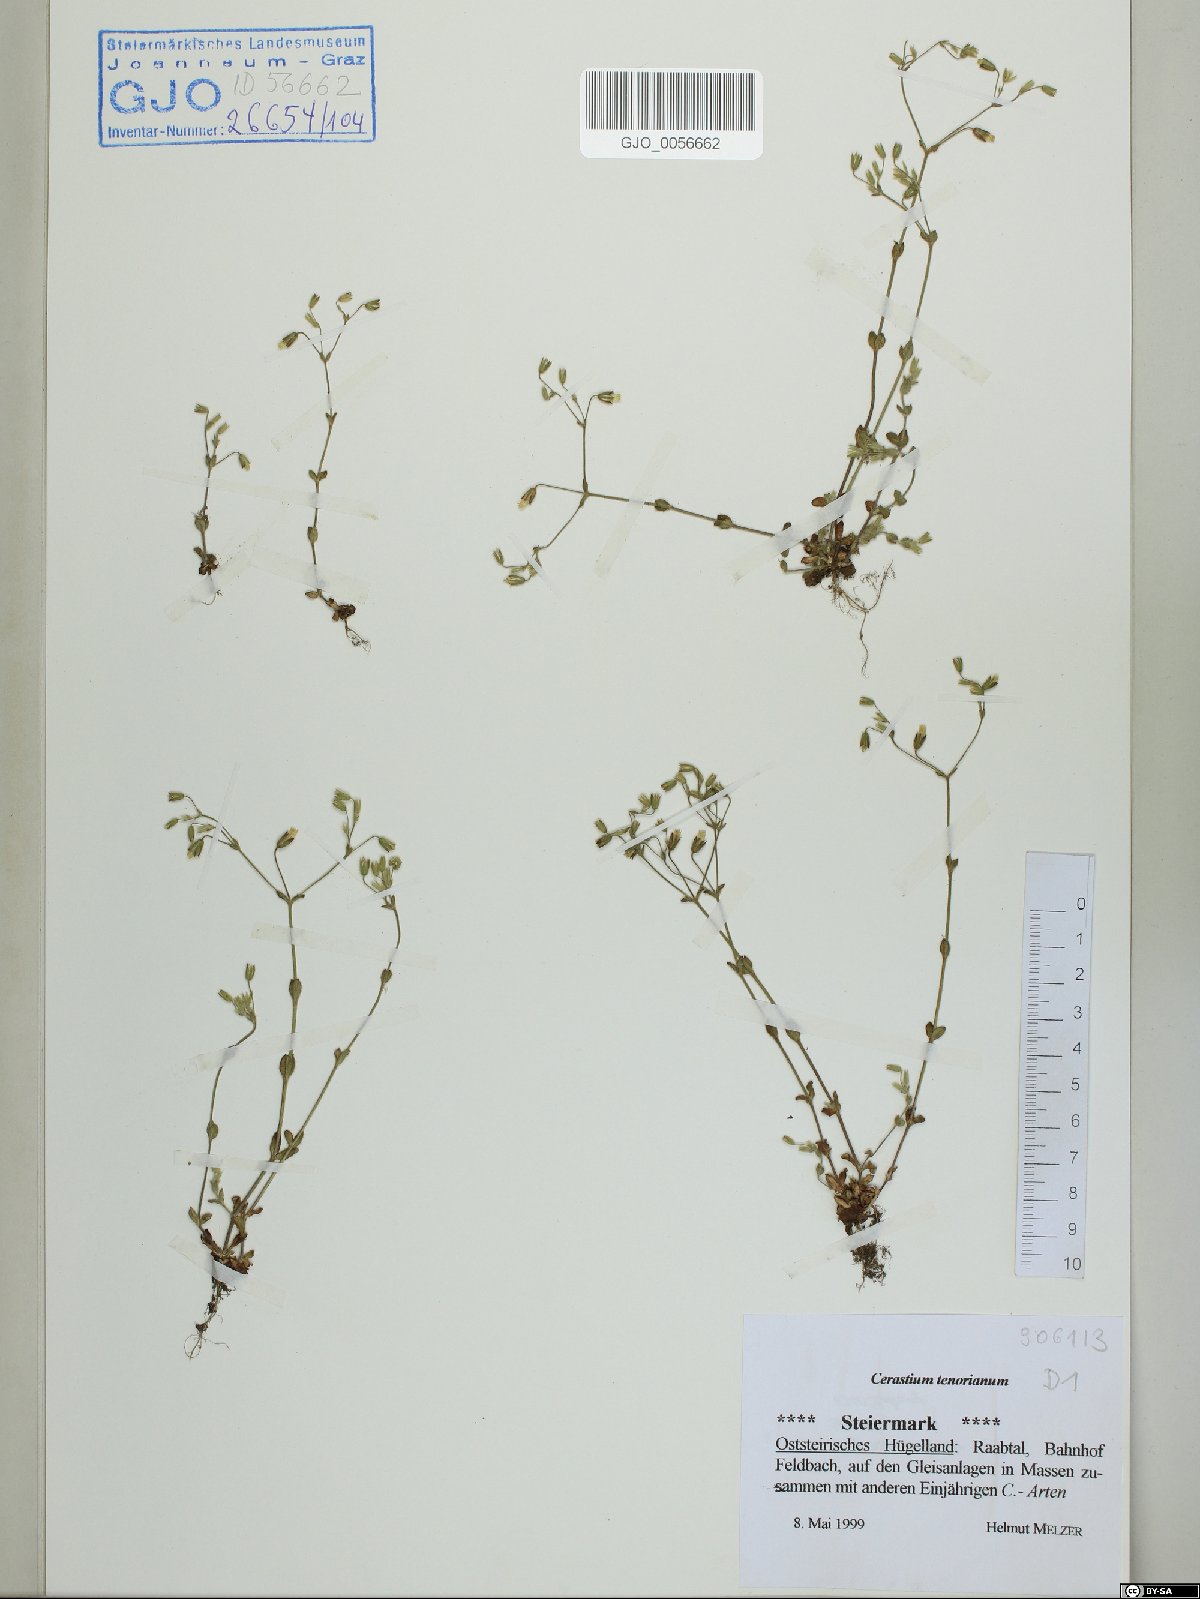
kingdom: Plantae
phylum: Tracheophyta
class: Magnoliopsida
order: Caryophyllales
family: Caryophyllaceae
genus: Cerastium
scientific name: Cerastium tenoreanum
